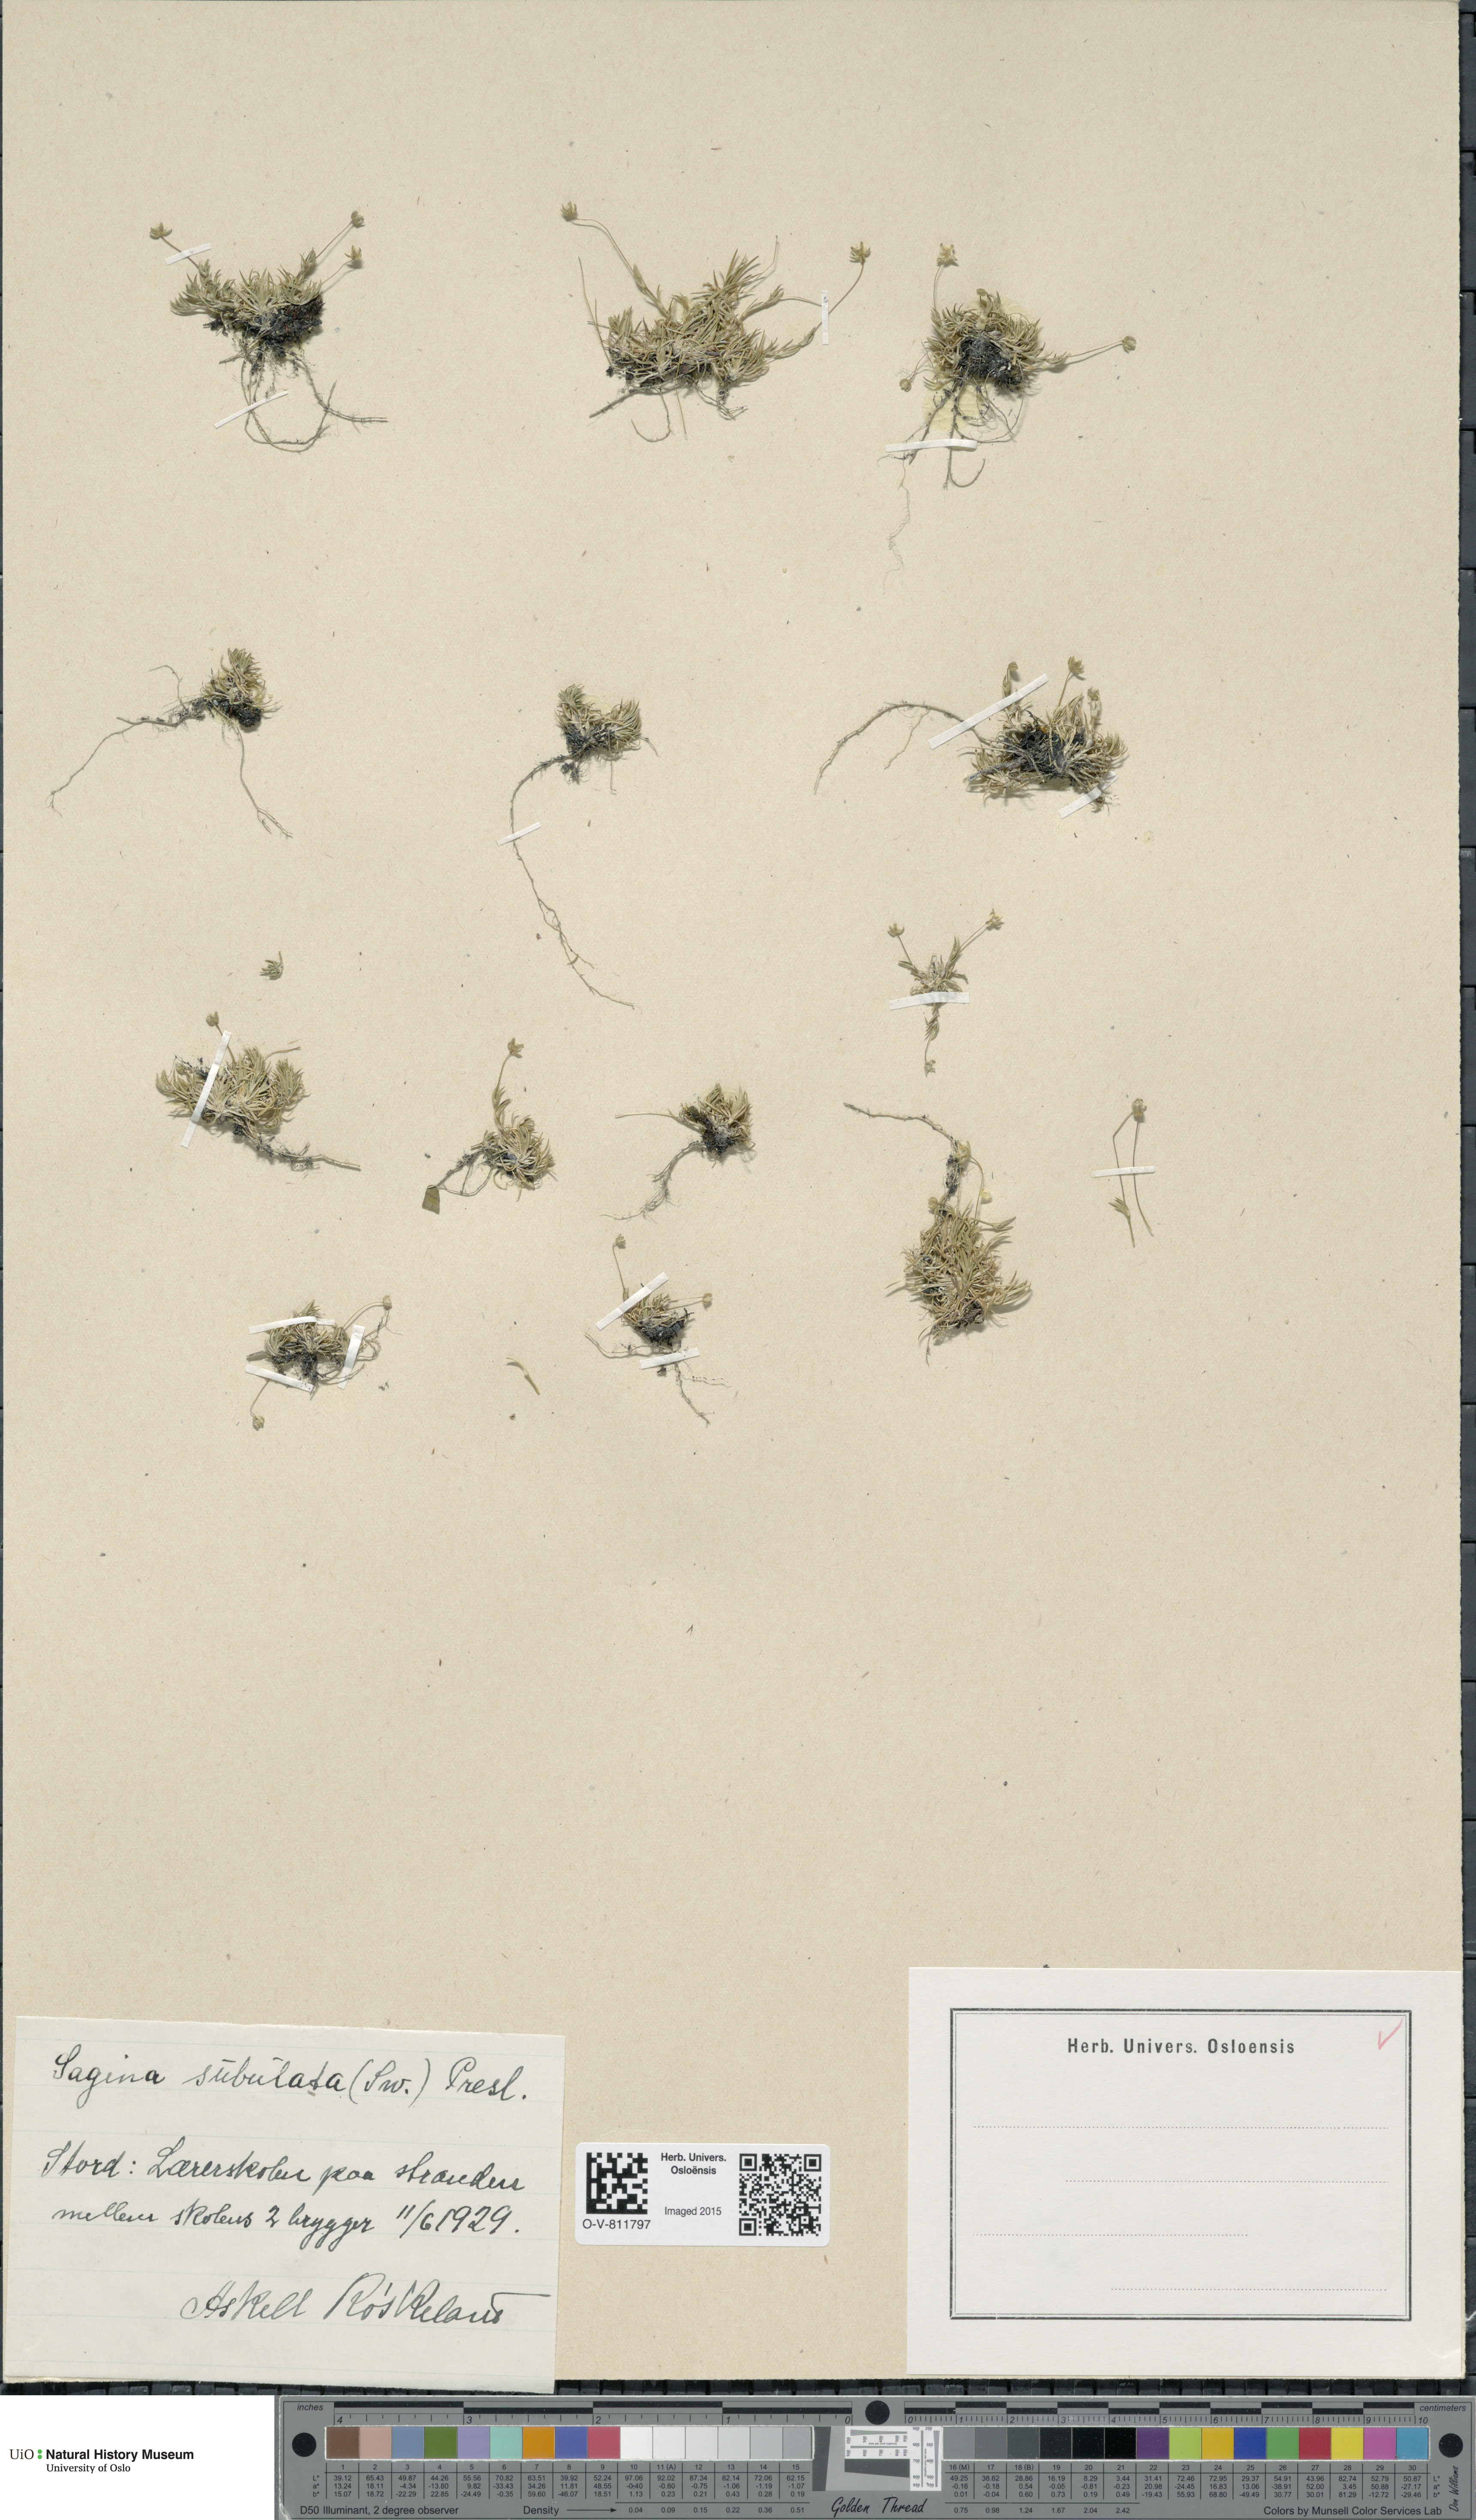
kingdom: Plantae
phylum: Tracheophyta
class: Magnoliopsida
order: Caryophyllales
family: Caryophyllaceae
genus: Sagina
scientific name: Sagina alexandrae
